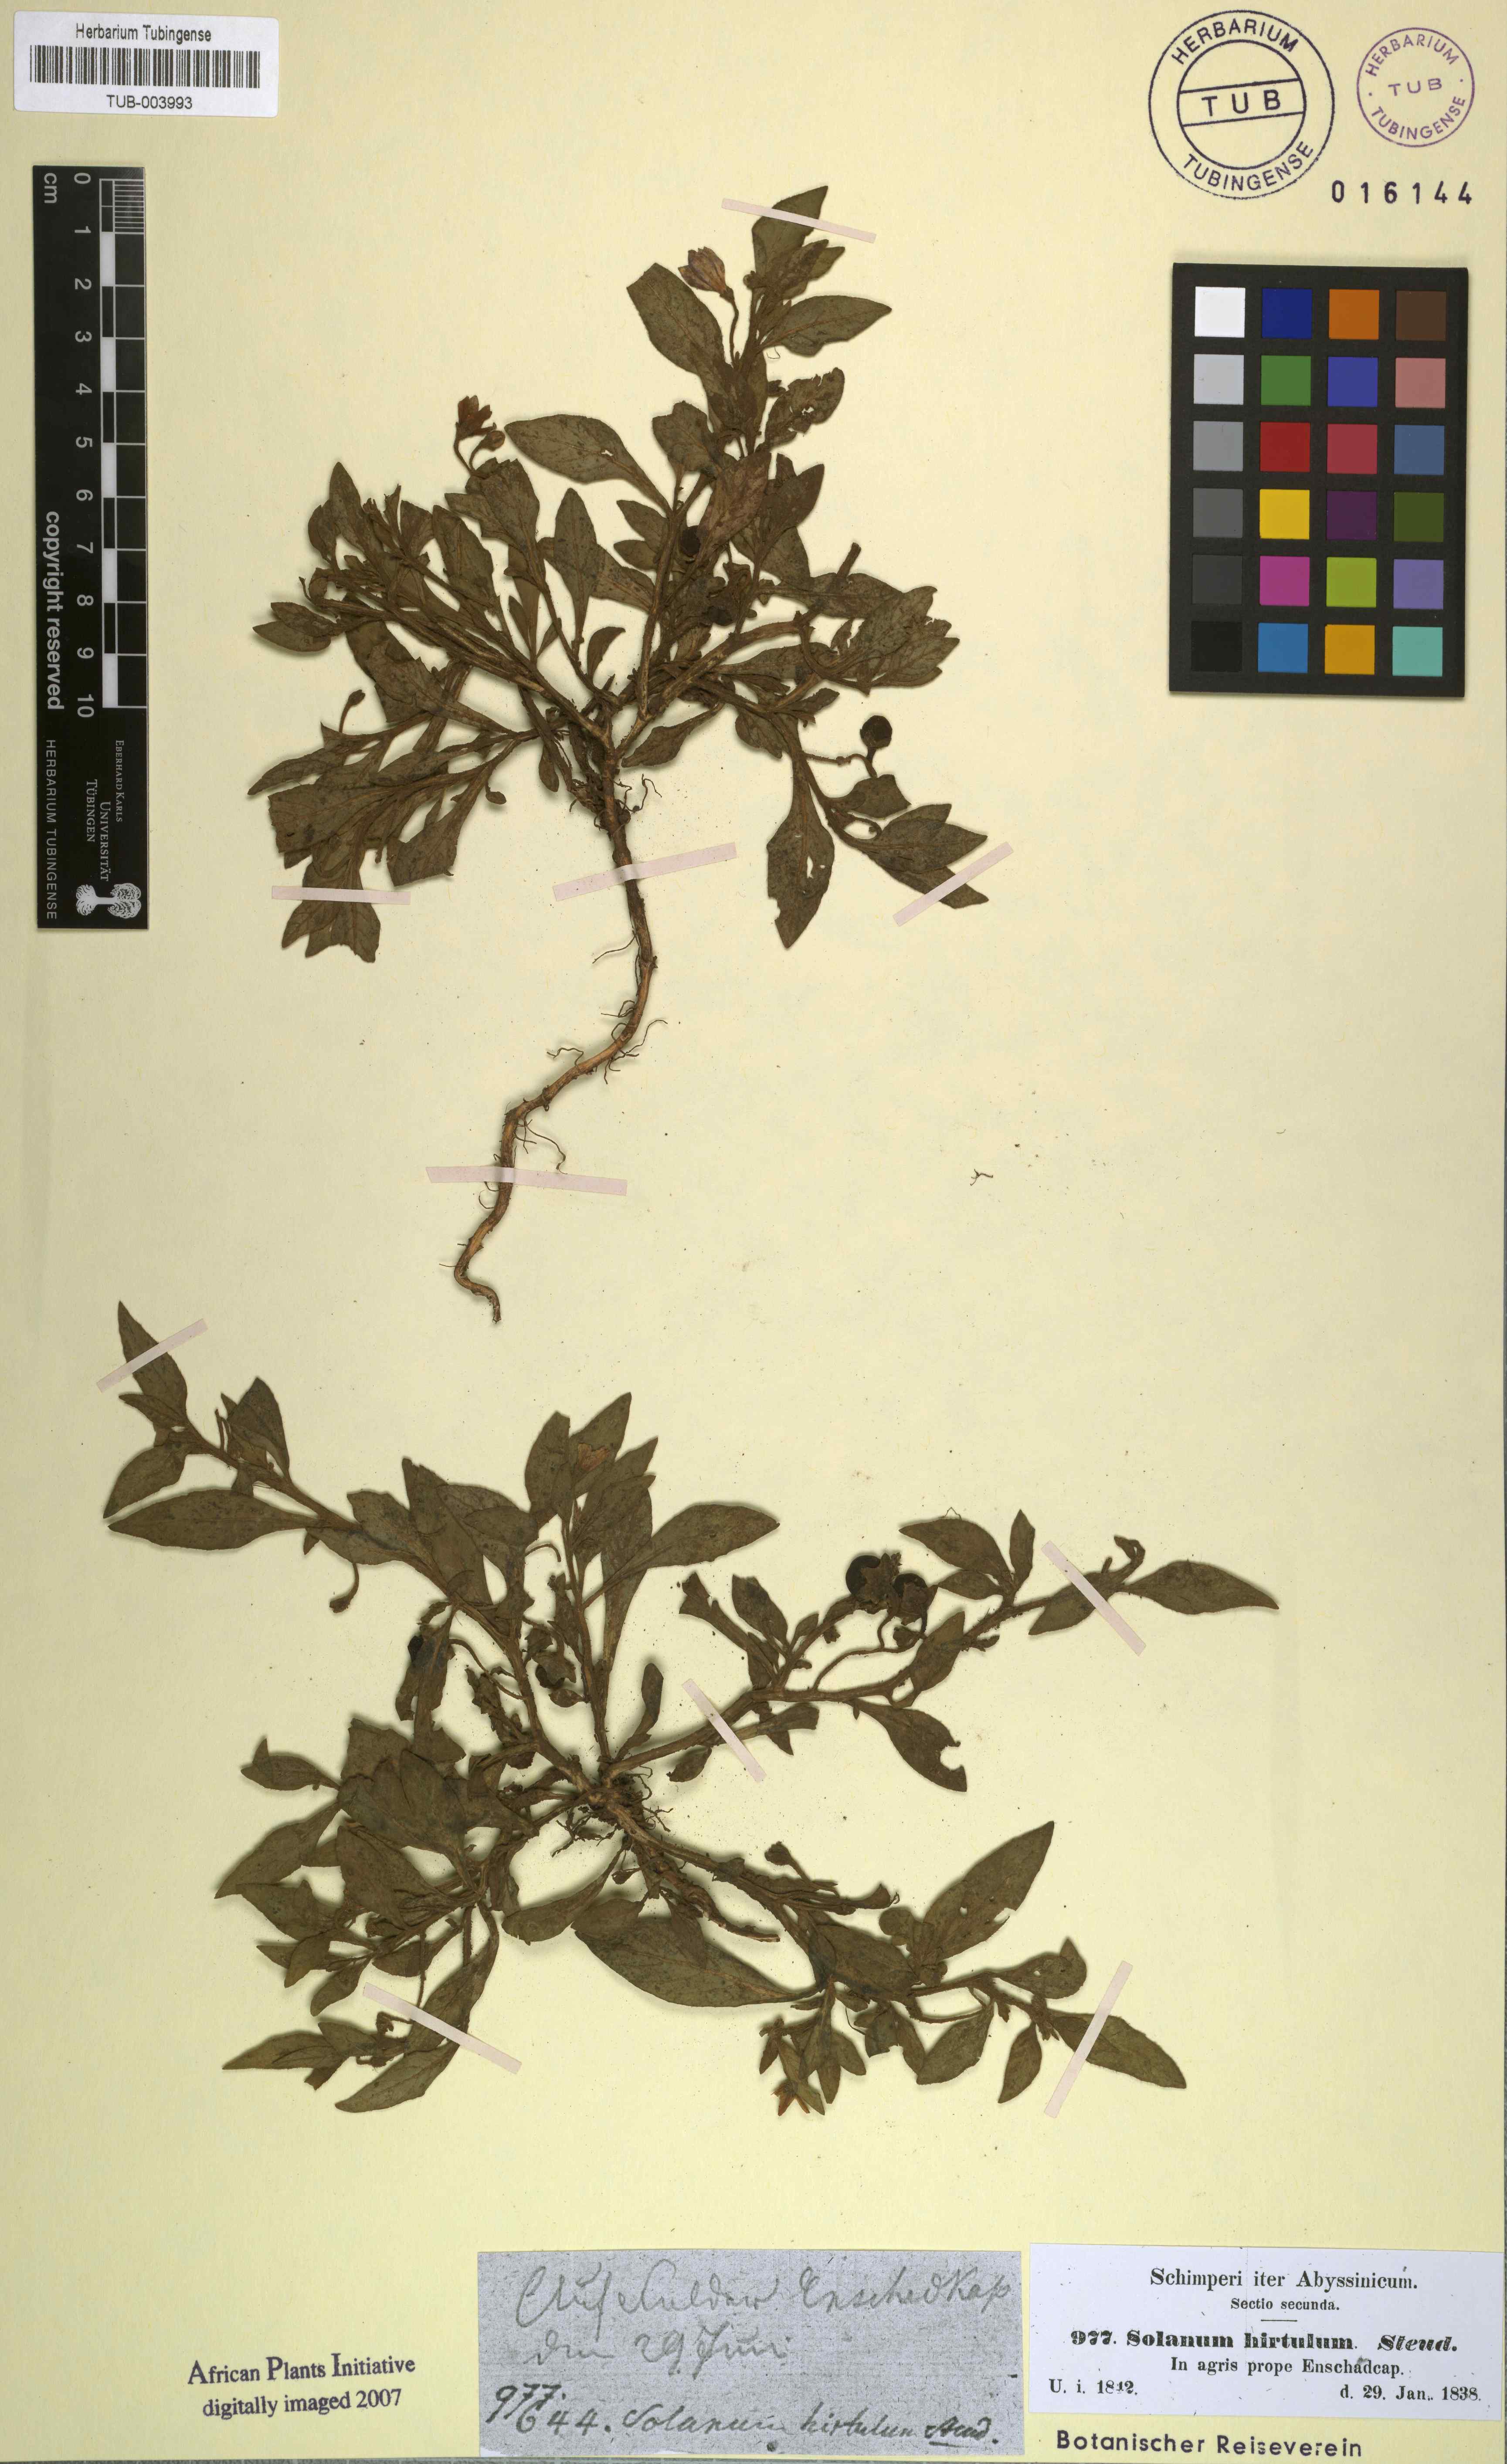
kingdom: Plantae
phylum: Tracheophyta
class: Magnoliopsida
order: Solanales
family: Solanaceae
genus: Solanum
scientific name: Solanum hirtulum
